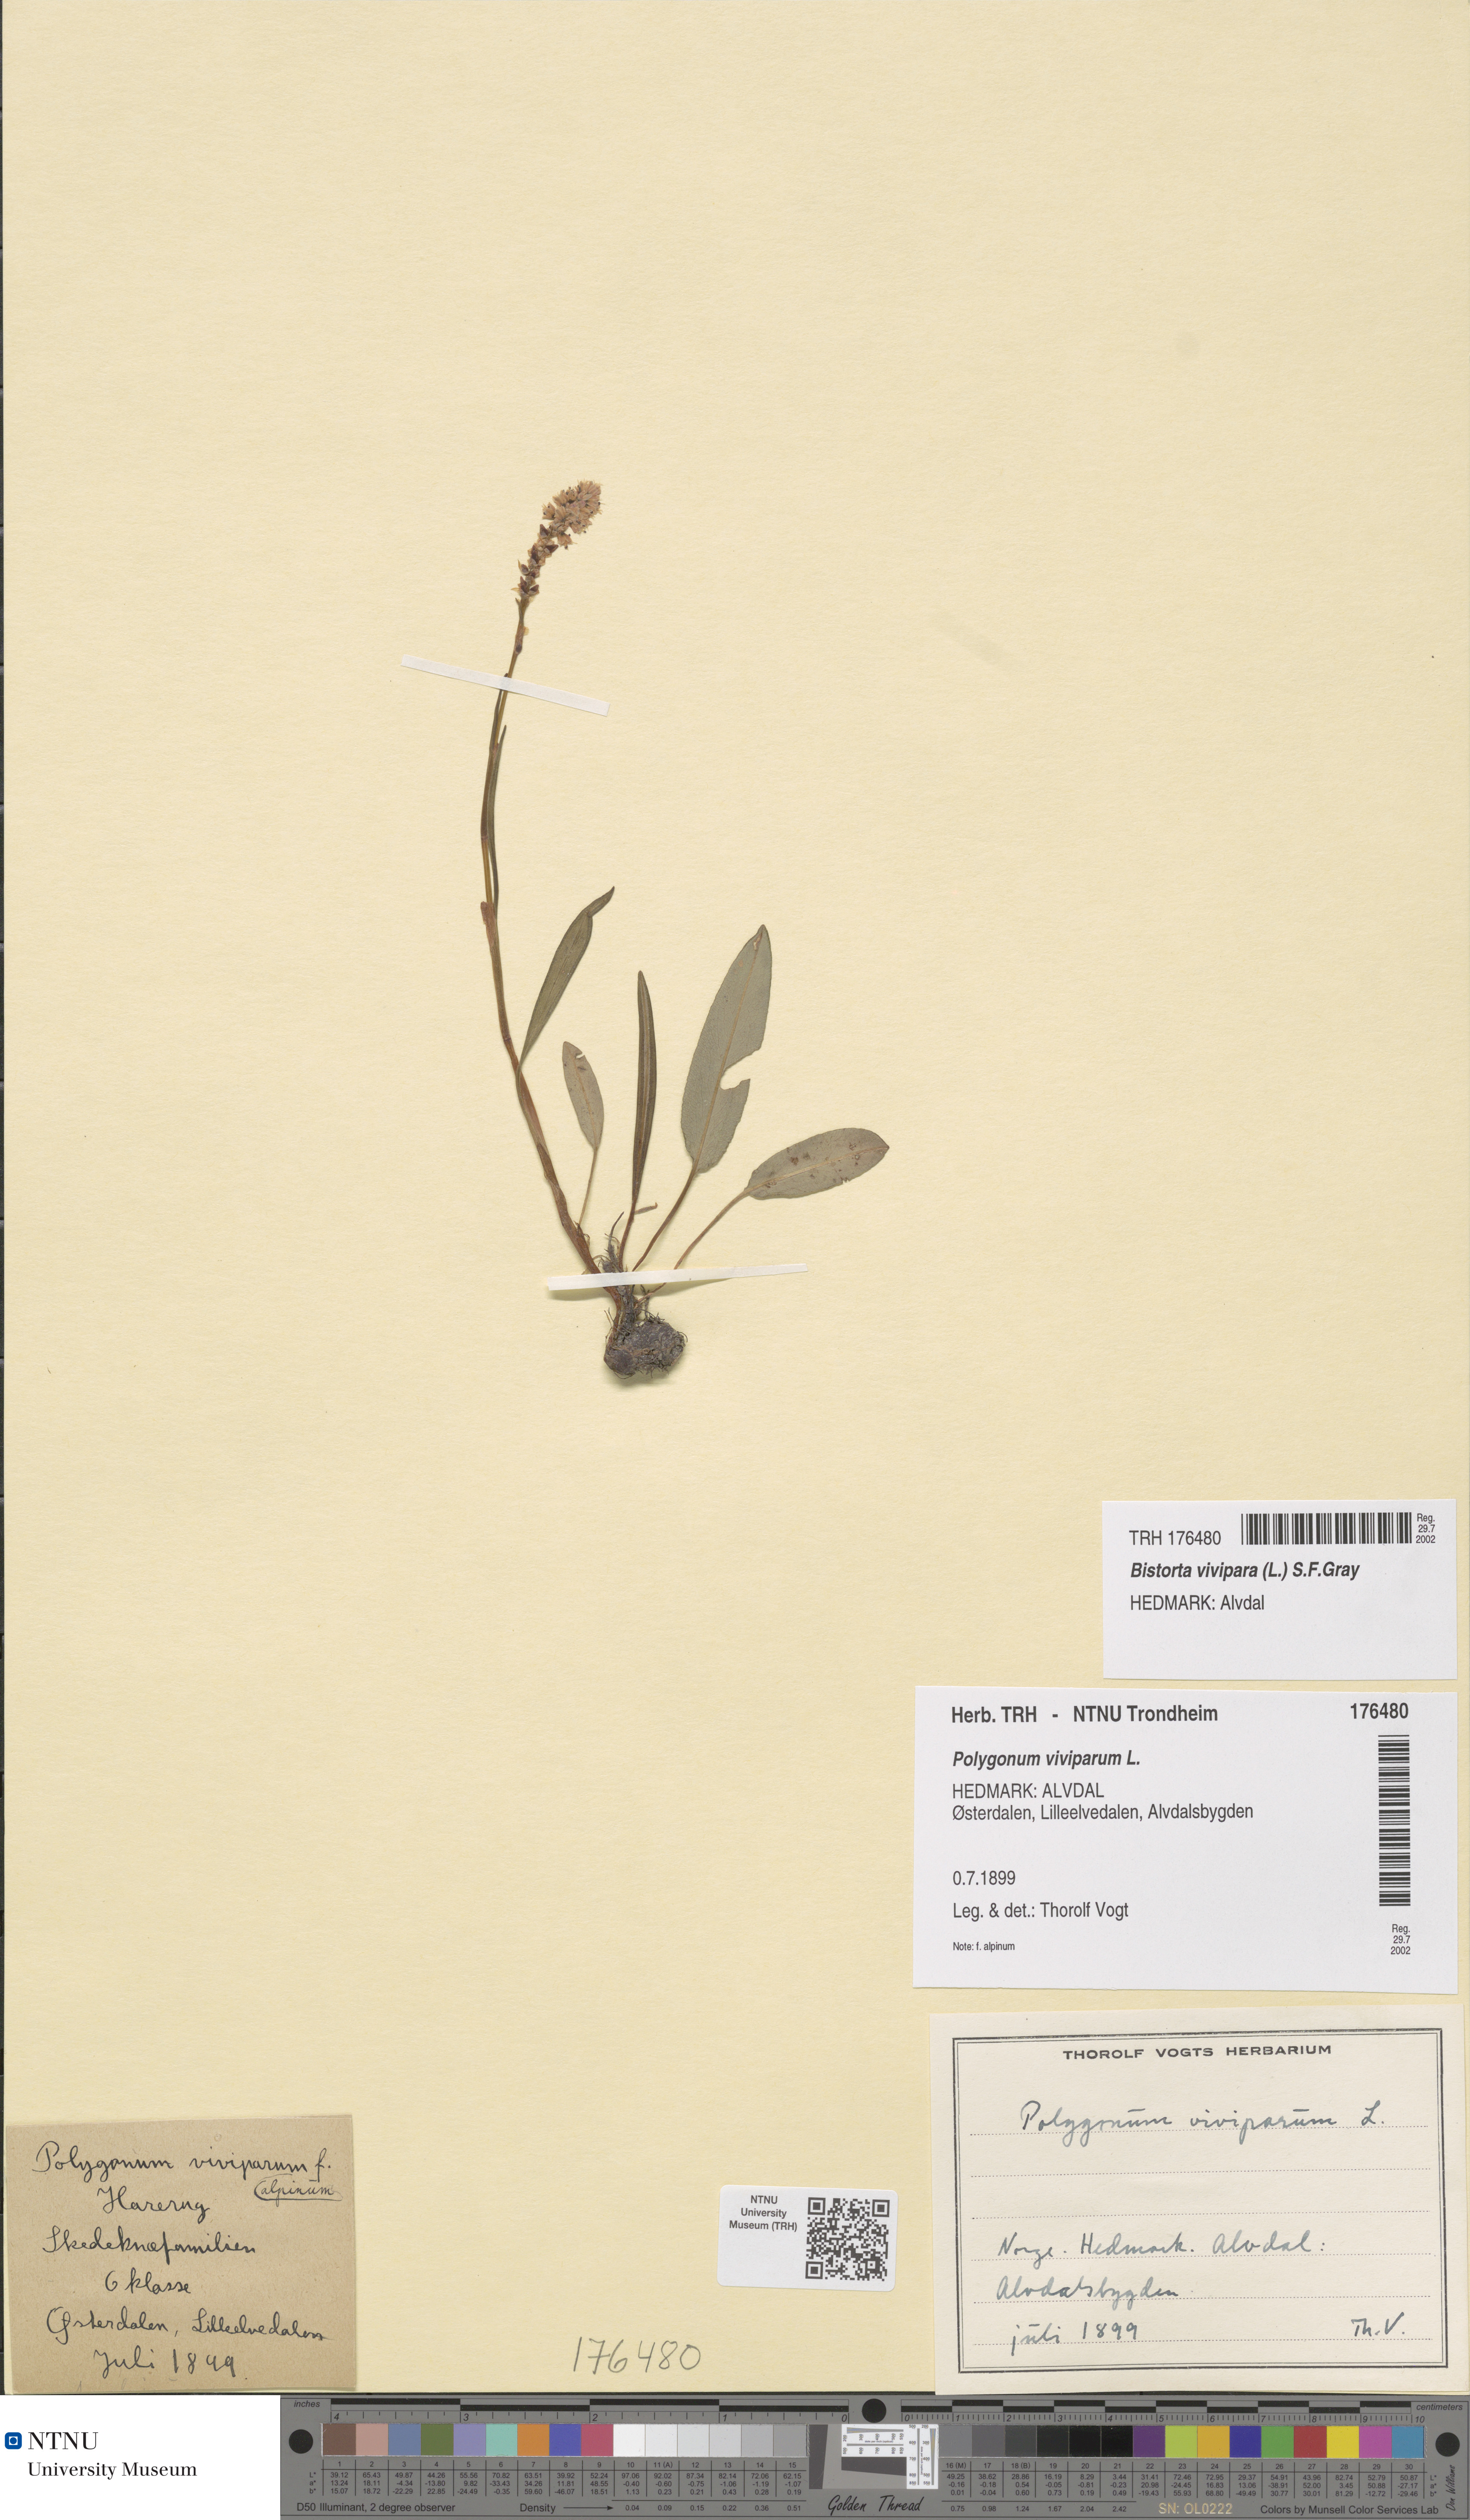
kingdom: Plantae
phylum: Tracheophyta
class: Magnoliopsida
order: Caryophyllales
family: Polygonaceae
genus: Bistorta
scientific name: Bistorta vivipara
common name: Alpine bistort
